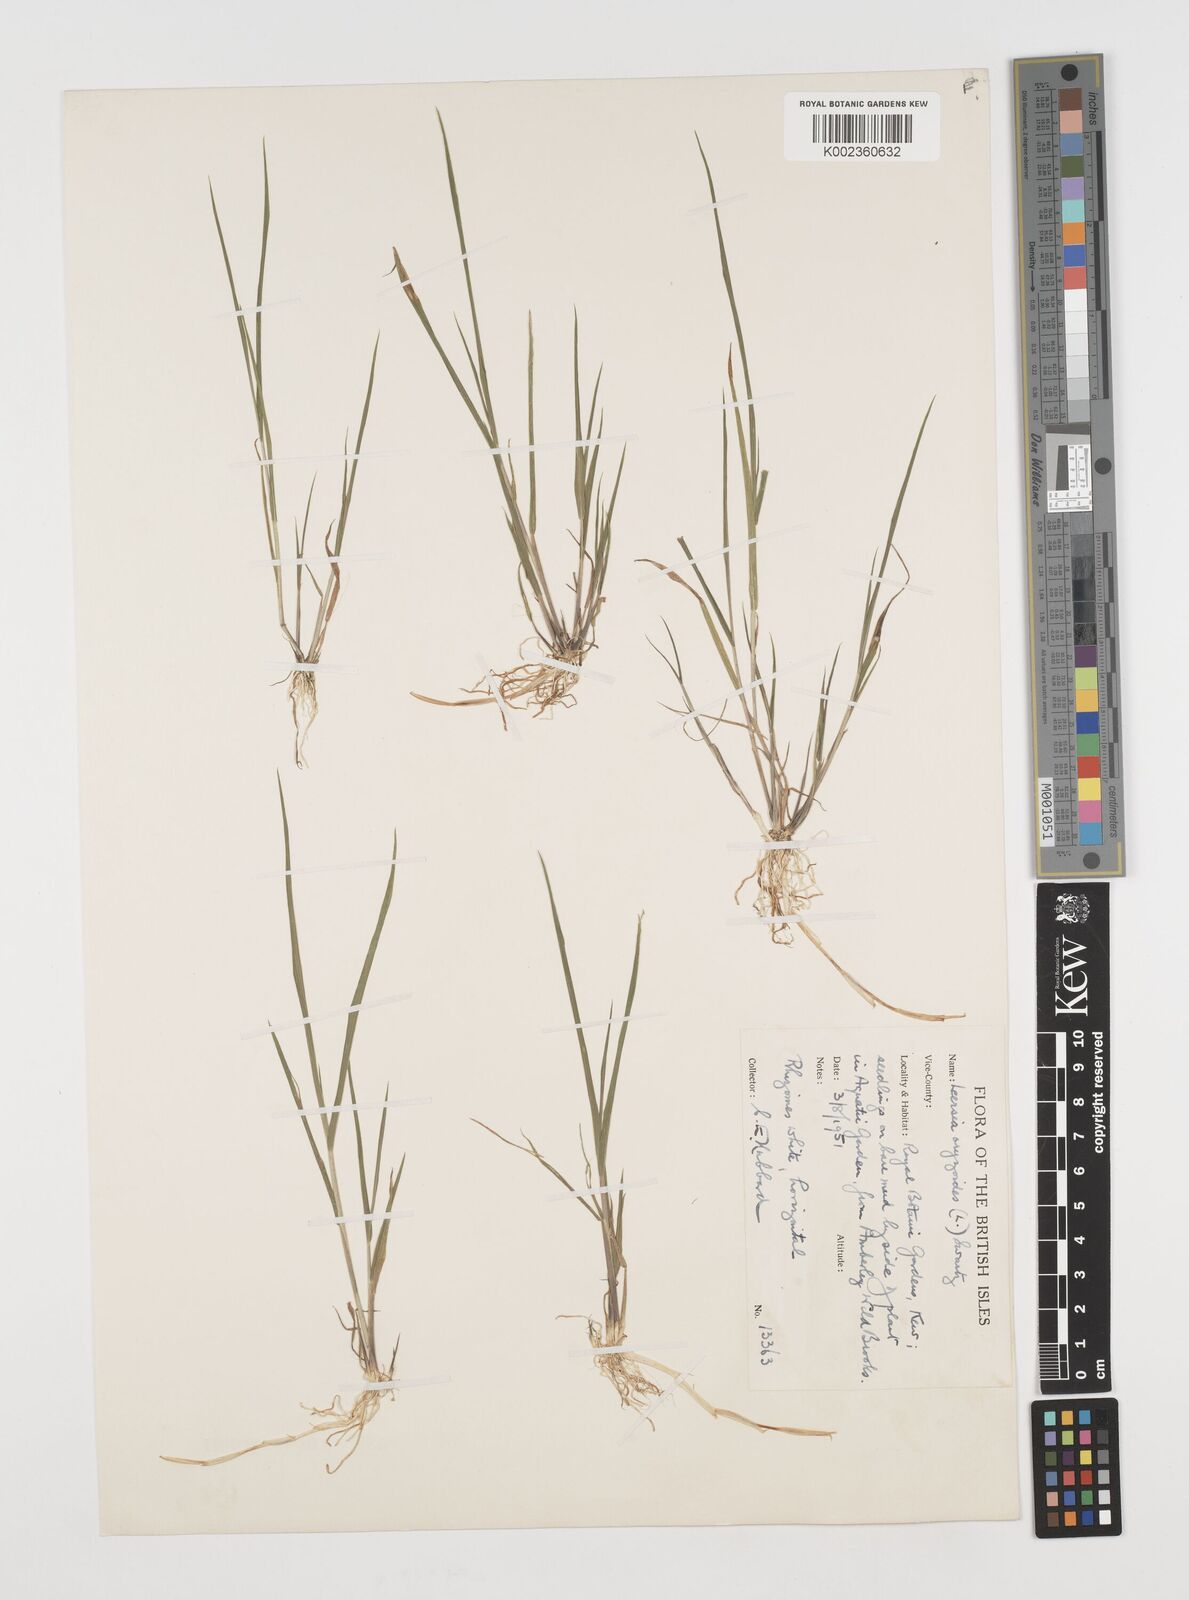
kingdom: Plantae
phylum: Tracheophyta
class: Liliopsida
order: Poales
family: Poaceae
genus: Leersia
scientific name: Leersia oryzoides
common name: Cut-grass
